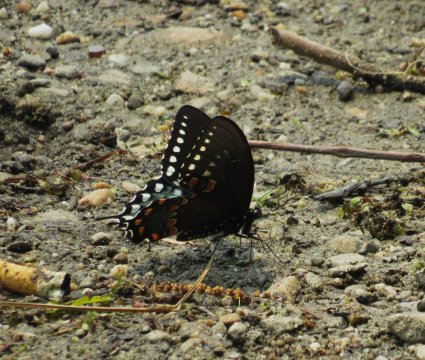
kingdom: Animalia
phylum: Arthropoda
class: Insecta
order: Lepidoptera
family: Papilionidae
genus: Pterourus
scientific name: Pterourus troilus
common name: Spicebush Swallowtail
